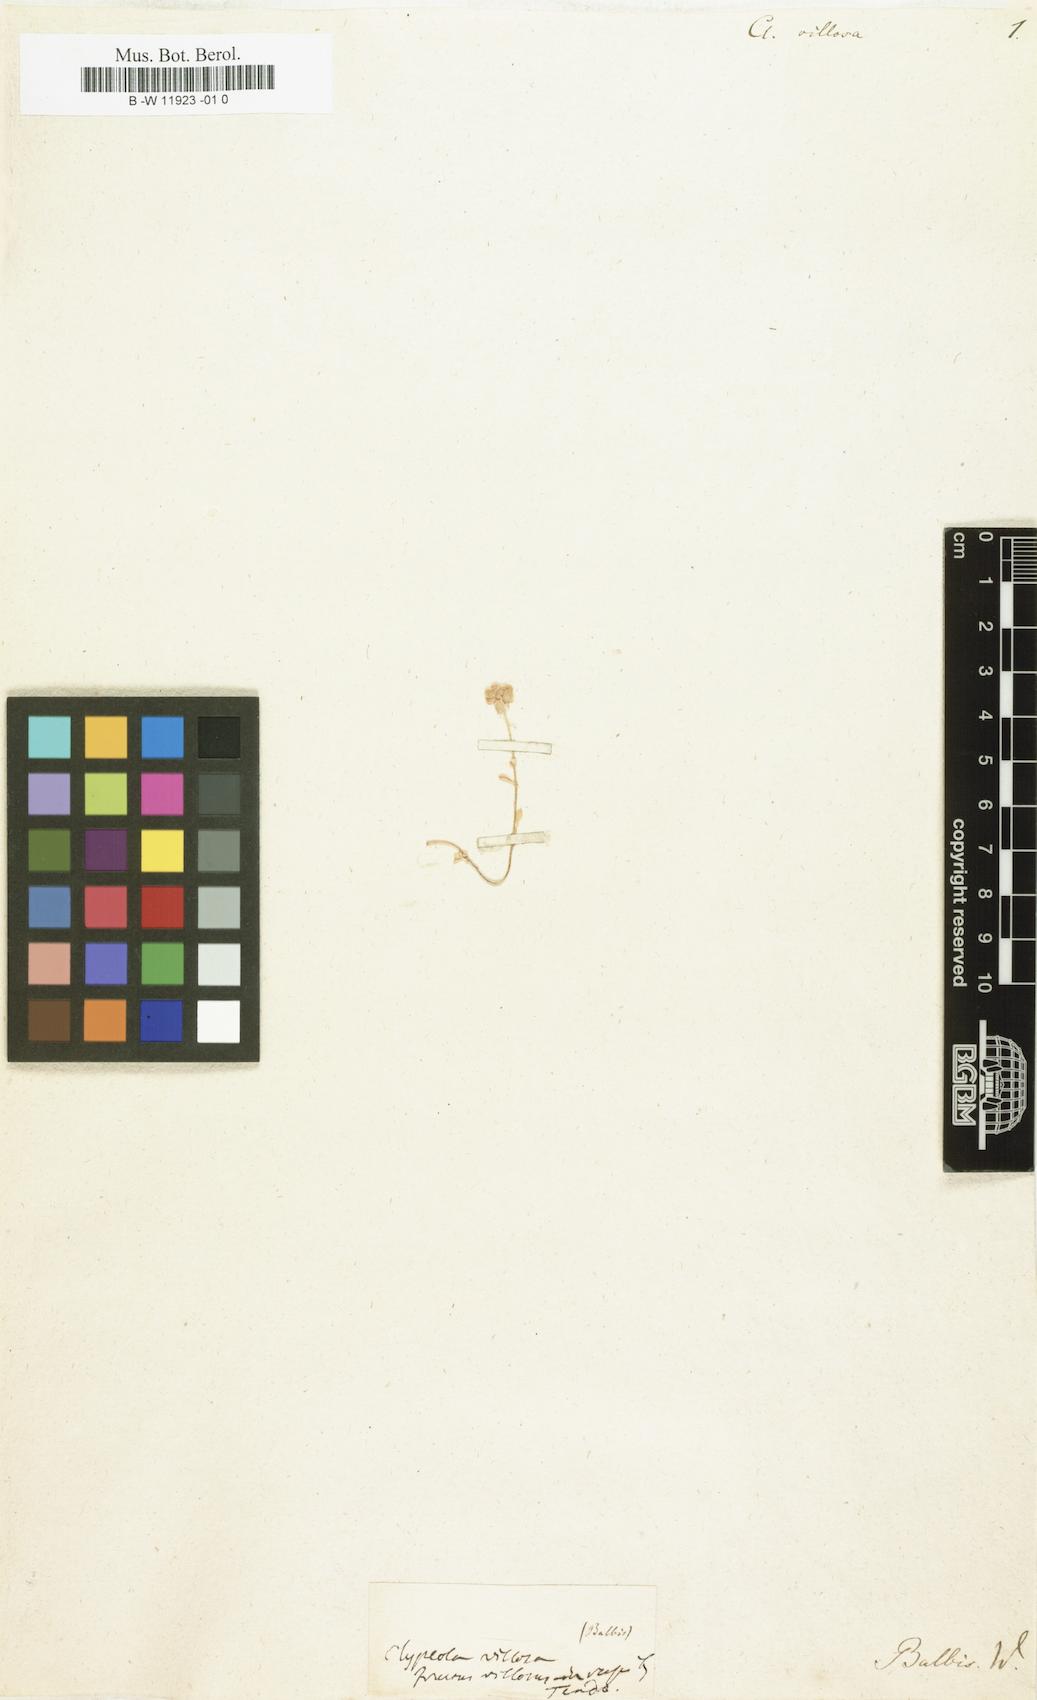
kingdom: Plantae
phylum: Tracheophyta
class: Magnoliopsida
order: Brassicales
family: Brassicaceae
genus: Clypeola
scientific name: Clypeola
